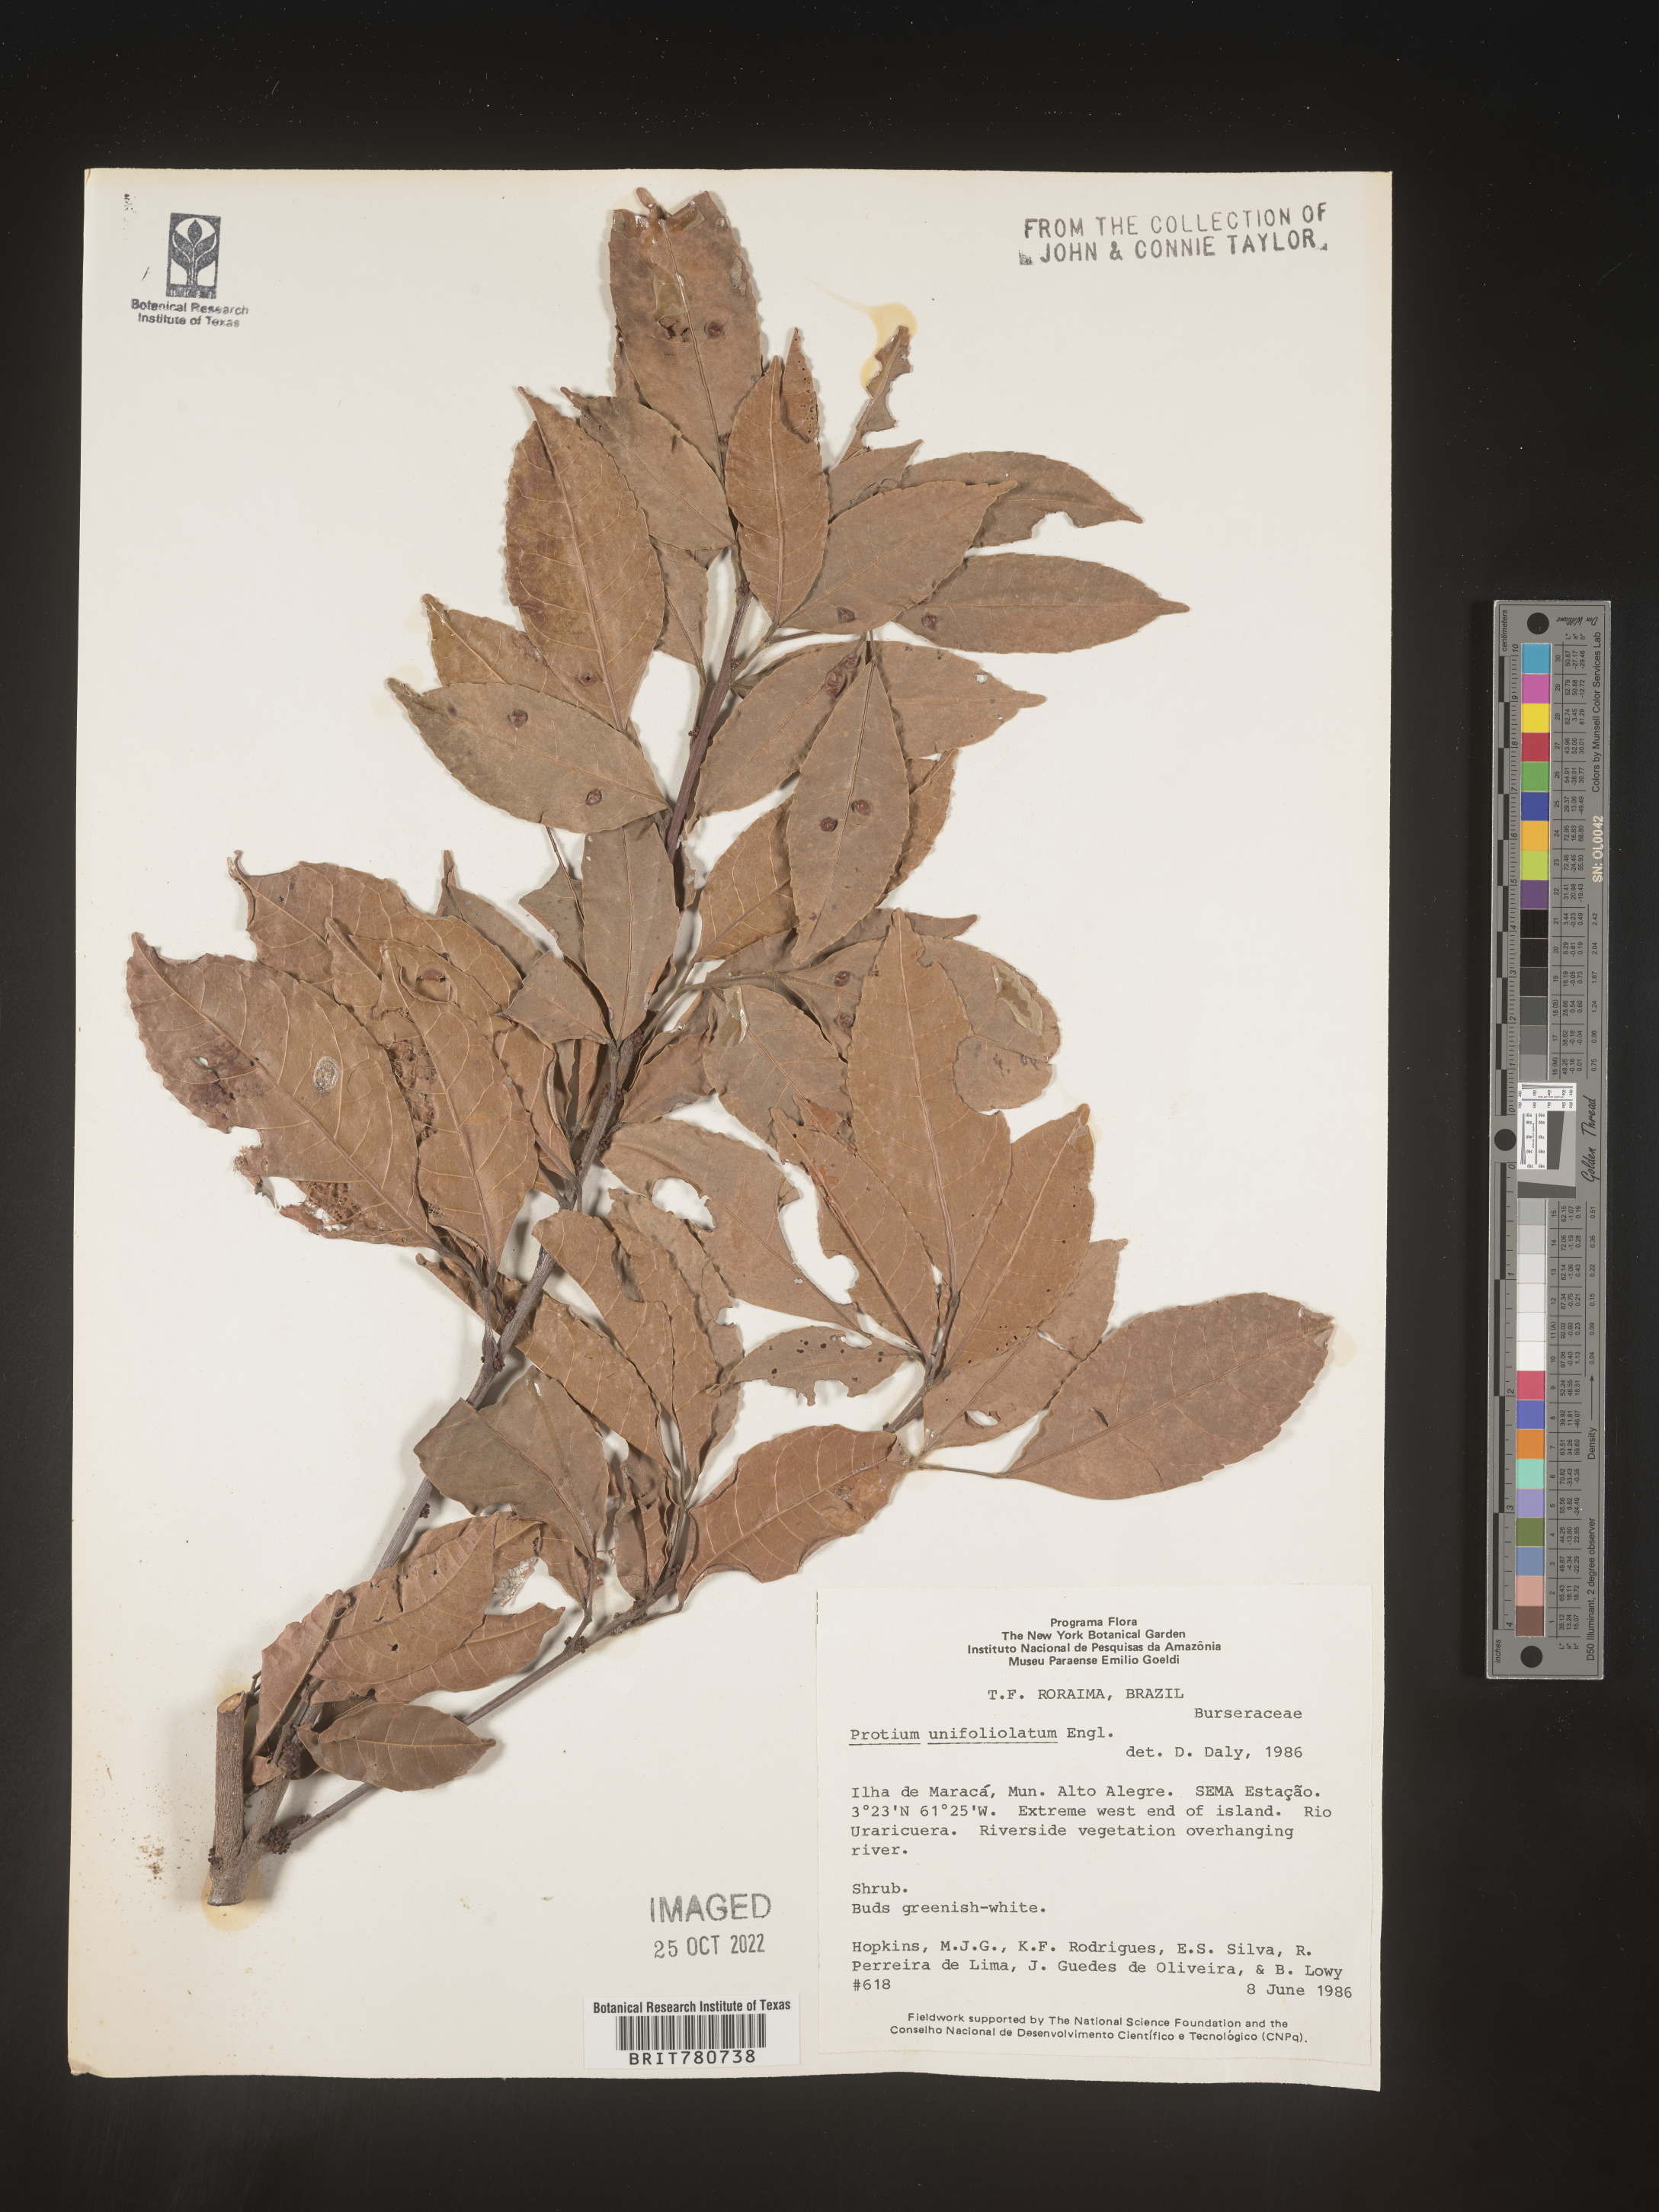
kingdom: Plantae
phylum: Tracheophyta
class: Magnoliopsida
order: Sapindales
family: Burseraceae
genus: Protium
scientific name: Protium
